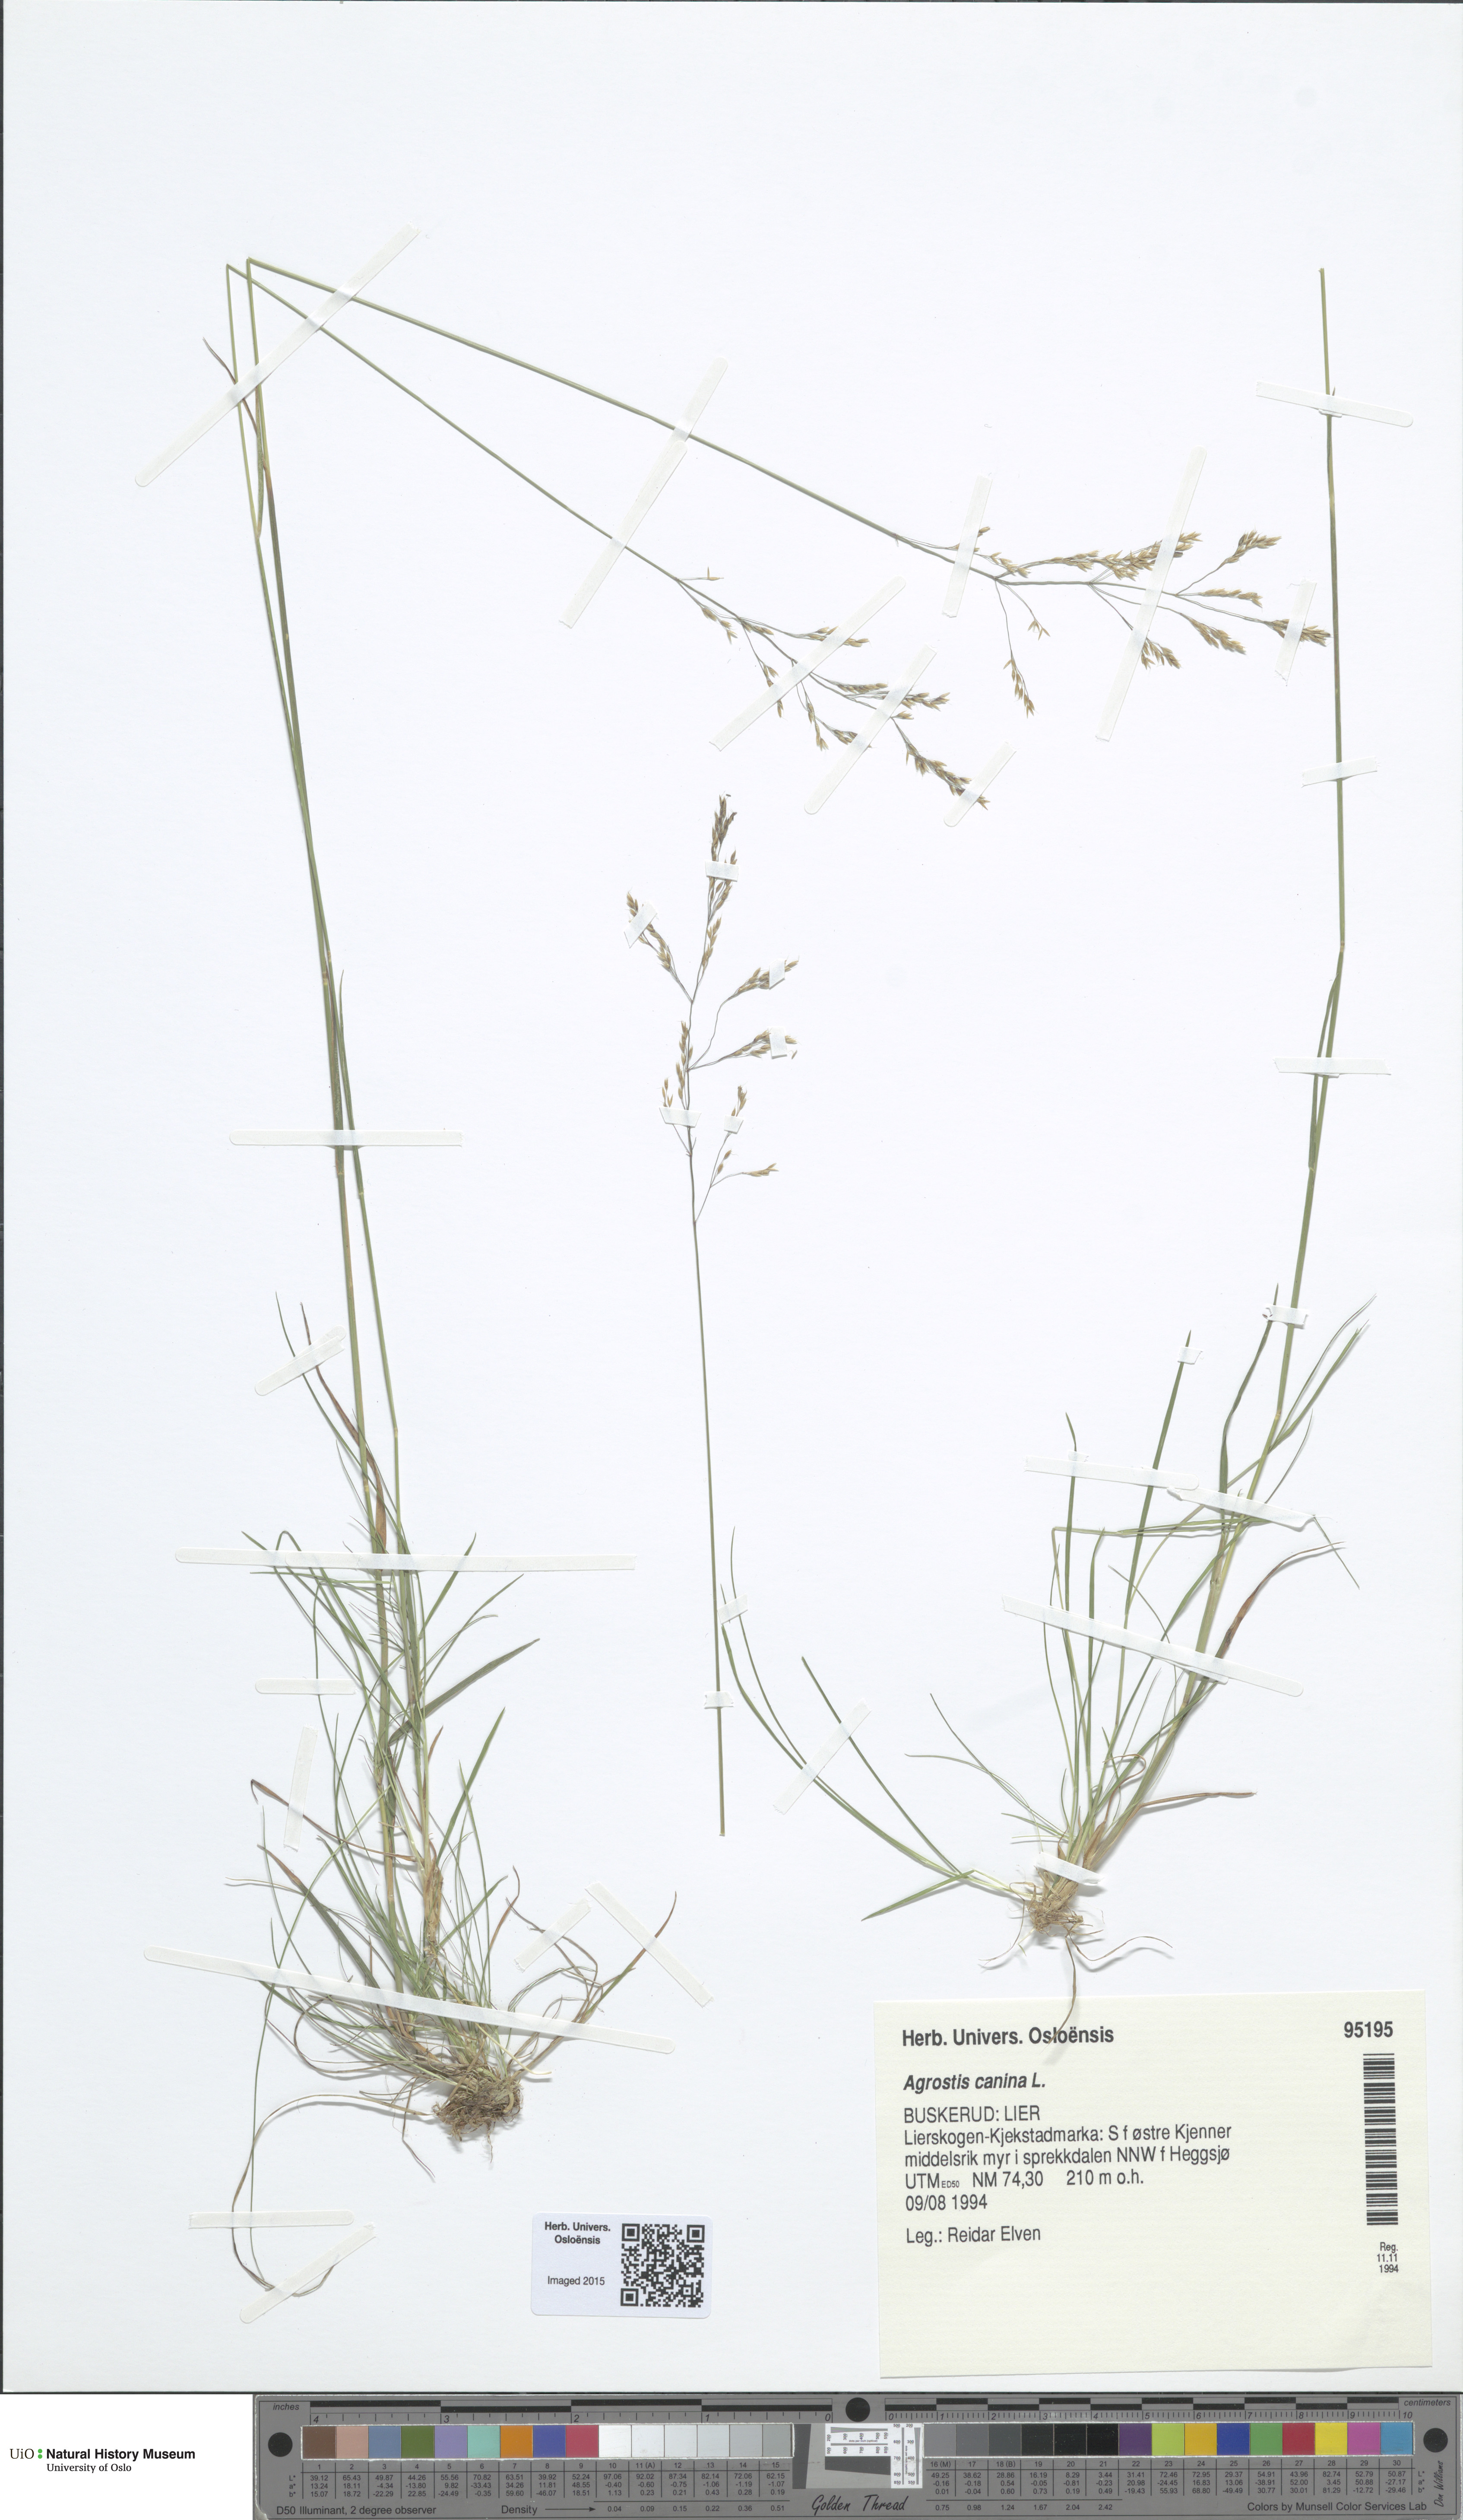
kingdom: Plantae
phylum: Tracheophyta
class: Liliopsida
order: Poales
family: Poaceae
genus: Agrostis
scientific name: Agrostis canina
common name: Velvet bent
